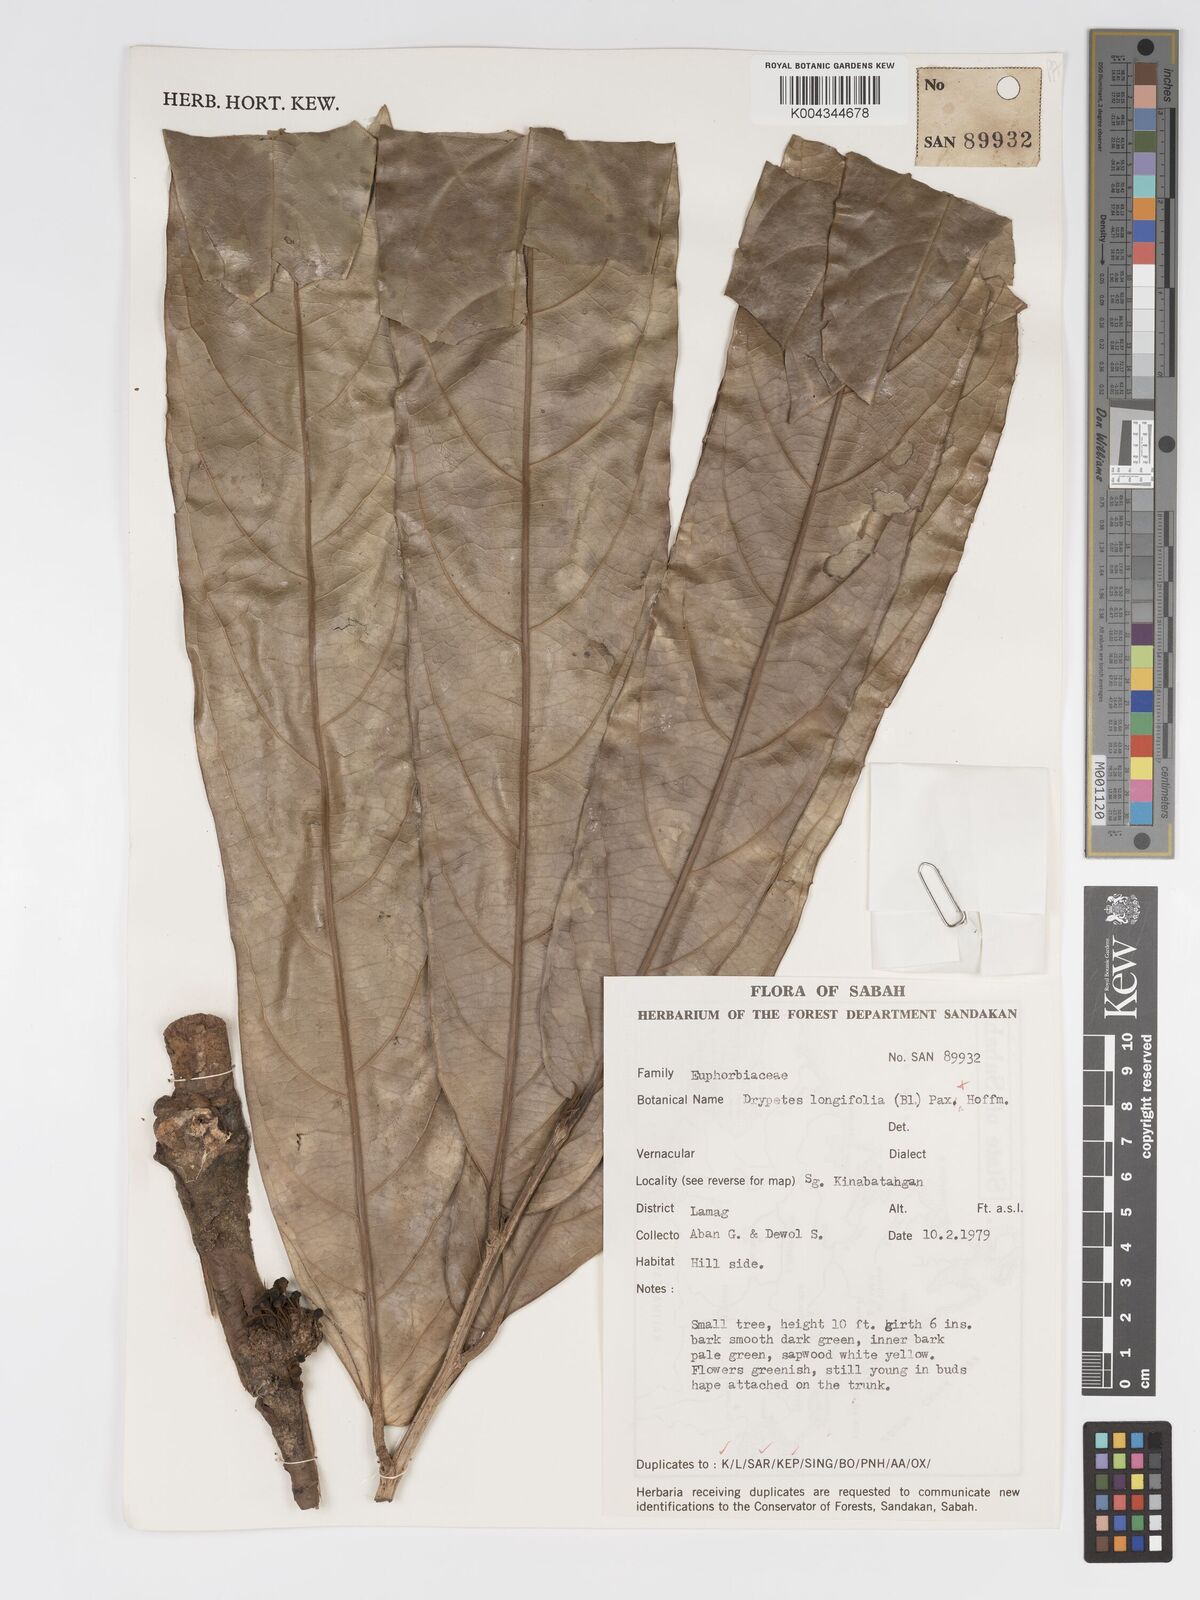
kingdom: Plantae
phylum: Tracheophyta
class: Magnoliopsida
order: Malpighiales
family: Putranjivaceae
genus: Drypetes
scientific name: Drypetes longifolia
